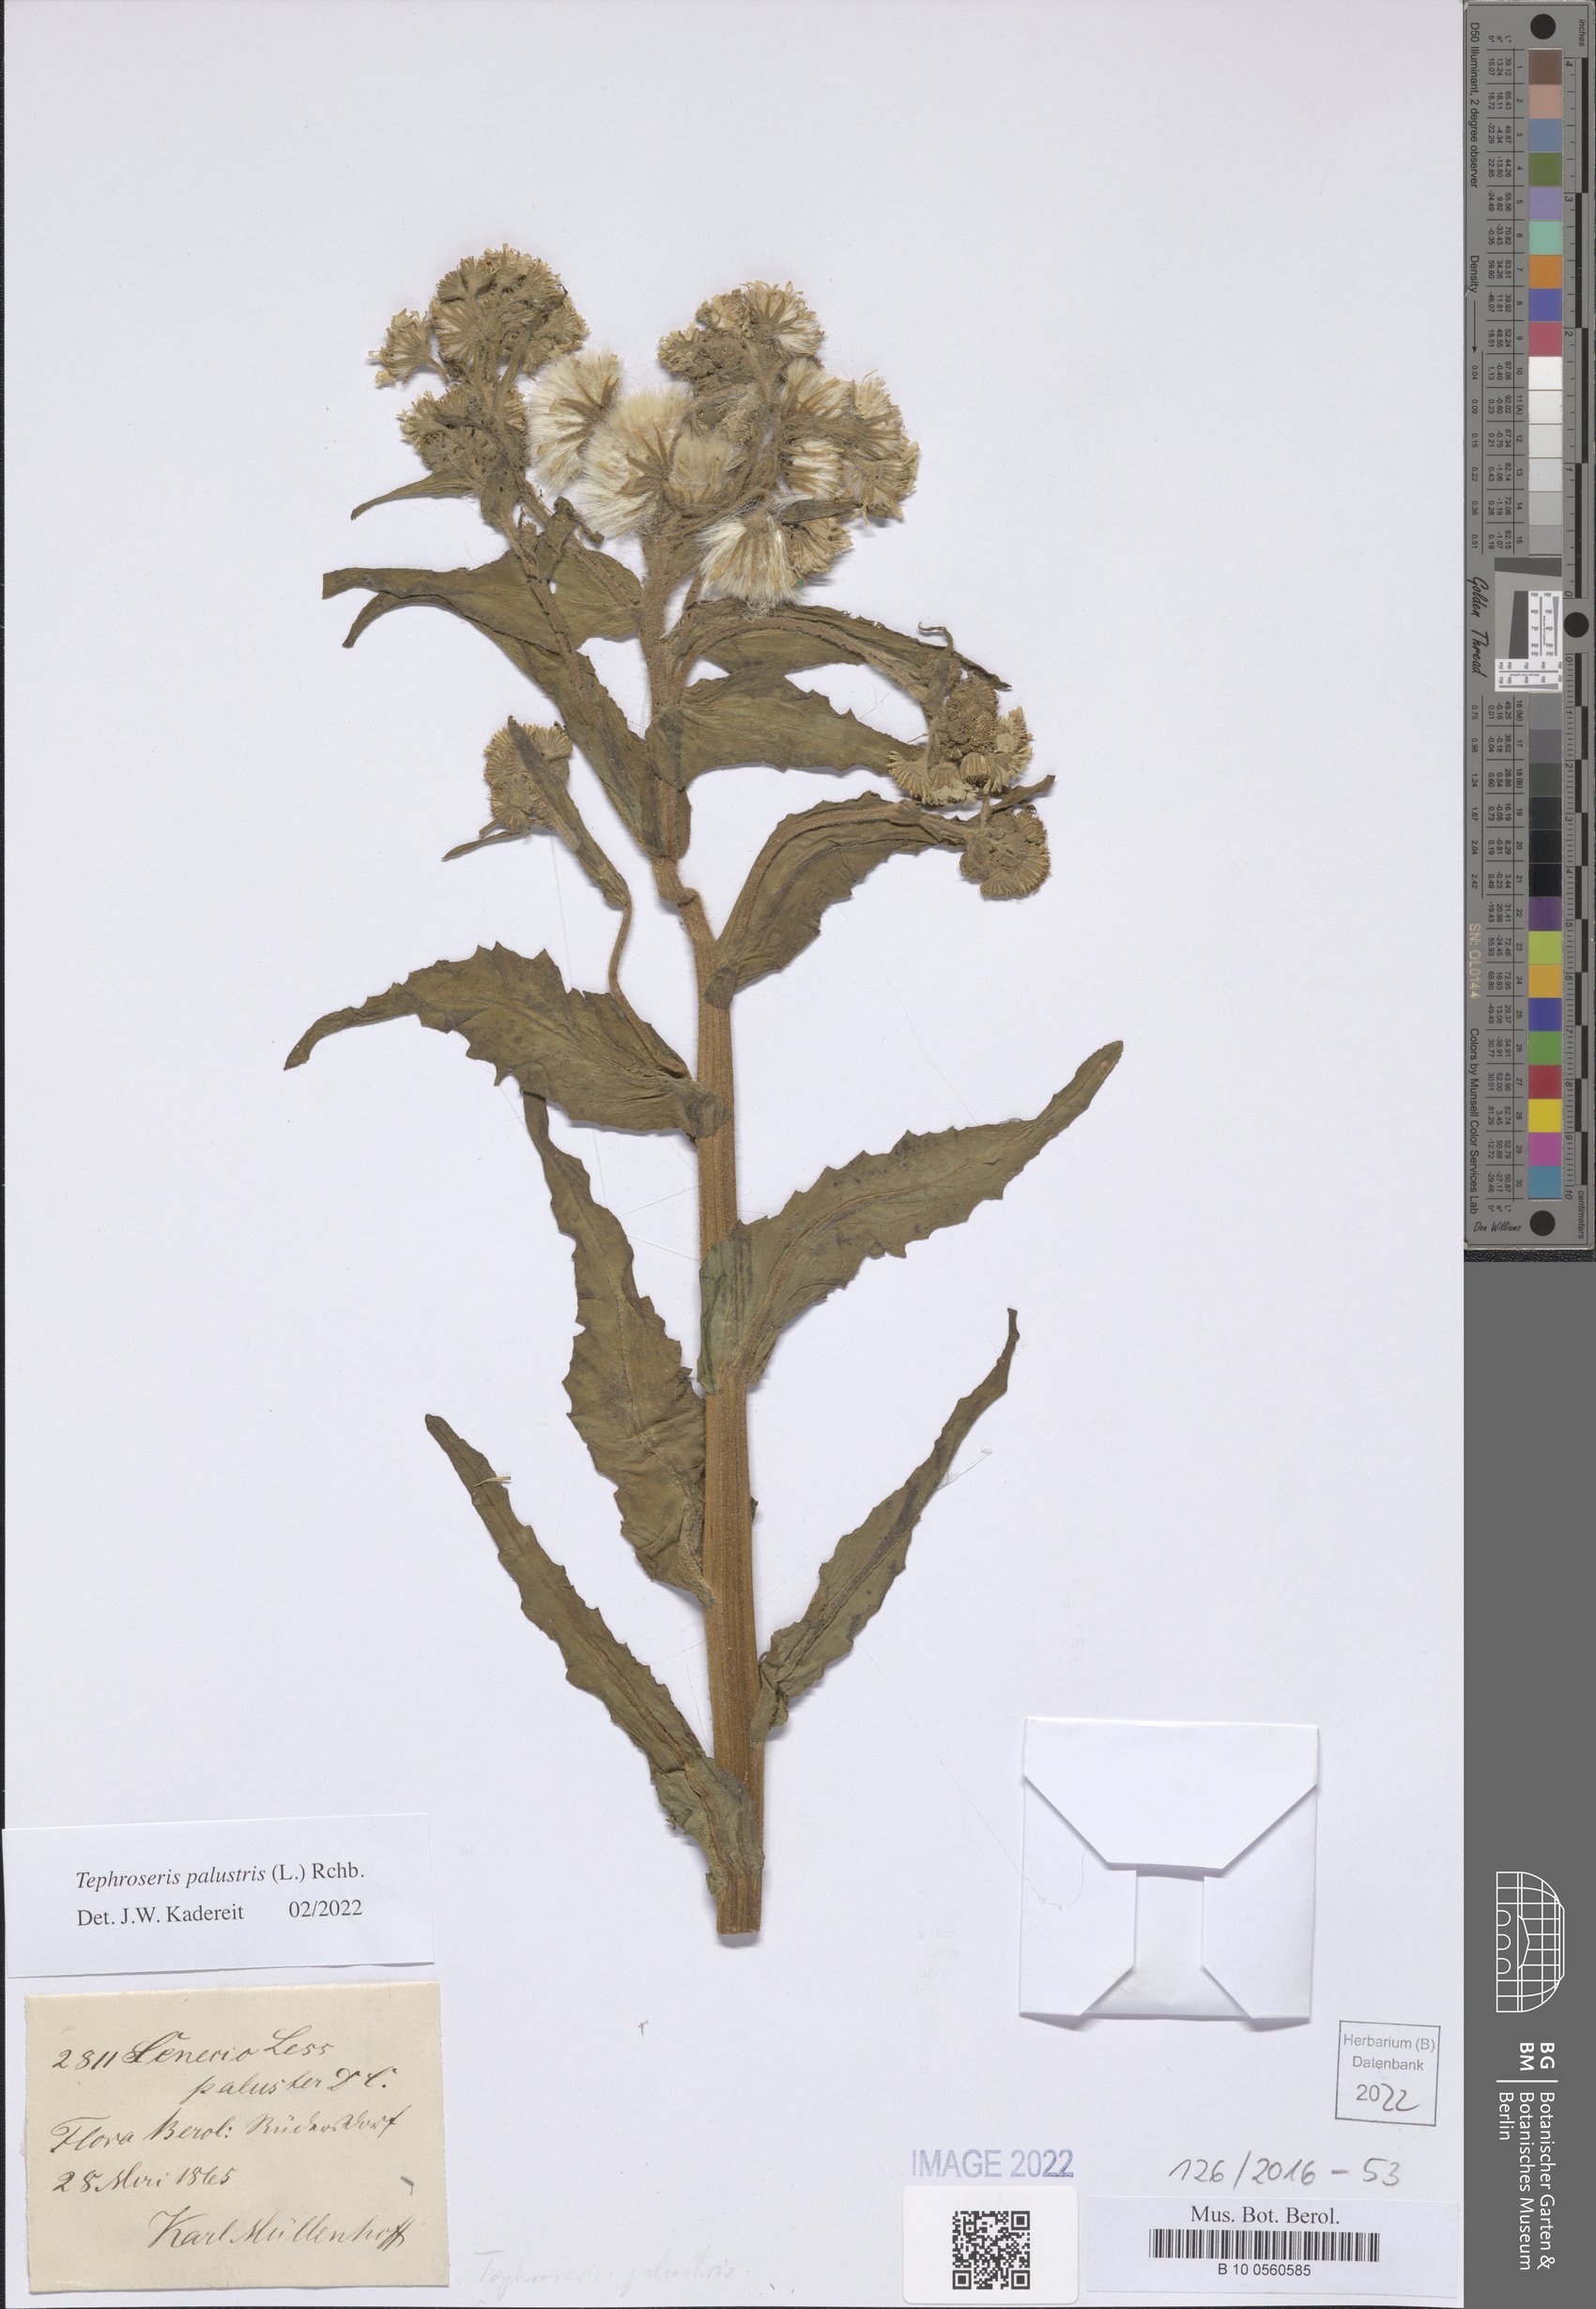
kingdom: Plantae
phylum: Tracheophyta
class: Magnoliopsida
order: Asterales
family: Asteraceae
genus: Tephroseris
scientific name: Tephroseris palustris
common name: Marsh fleawort
